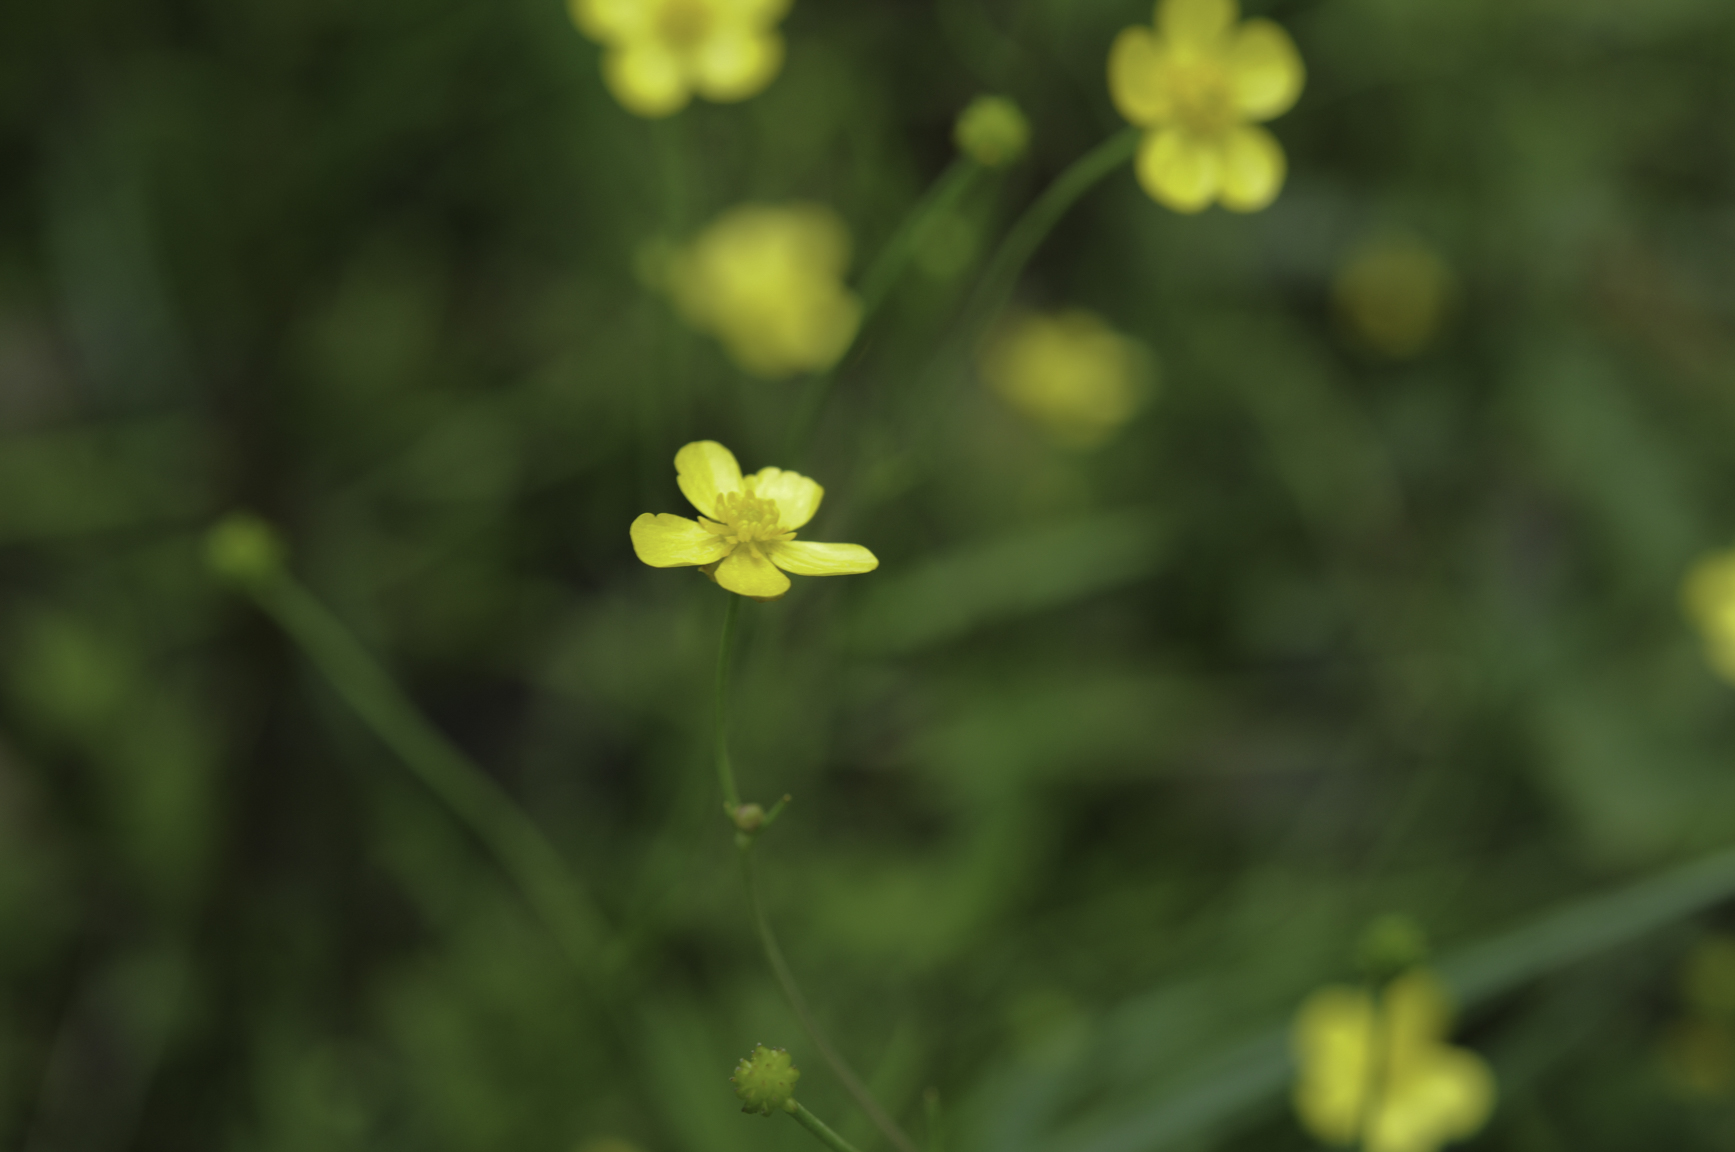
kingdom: Plantae
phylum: Tracheophyta
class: Magnoliopsida
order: Ranunculales
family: Ranunculaceae
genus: Ranunculus
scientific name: Ranunculus flammula
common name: Lesser spearwort
